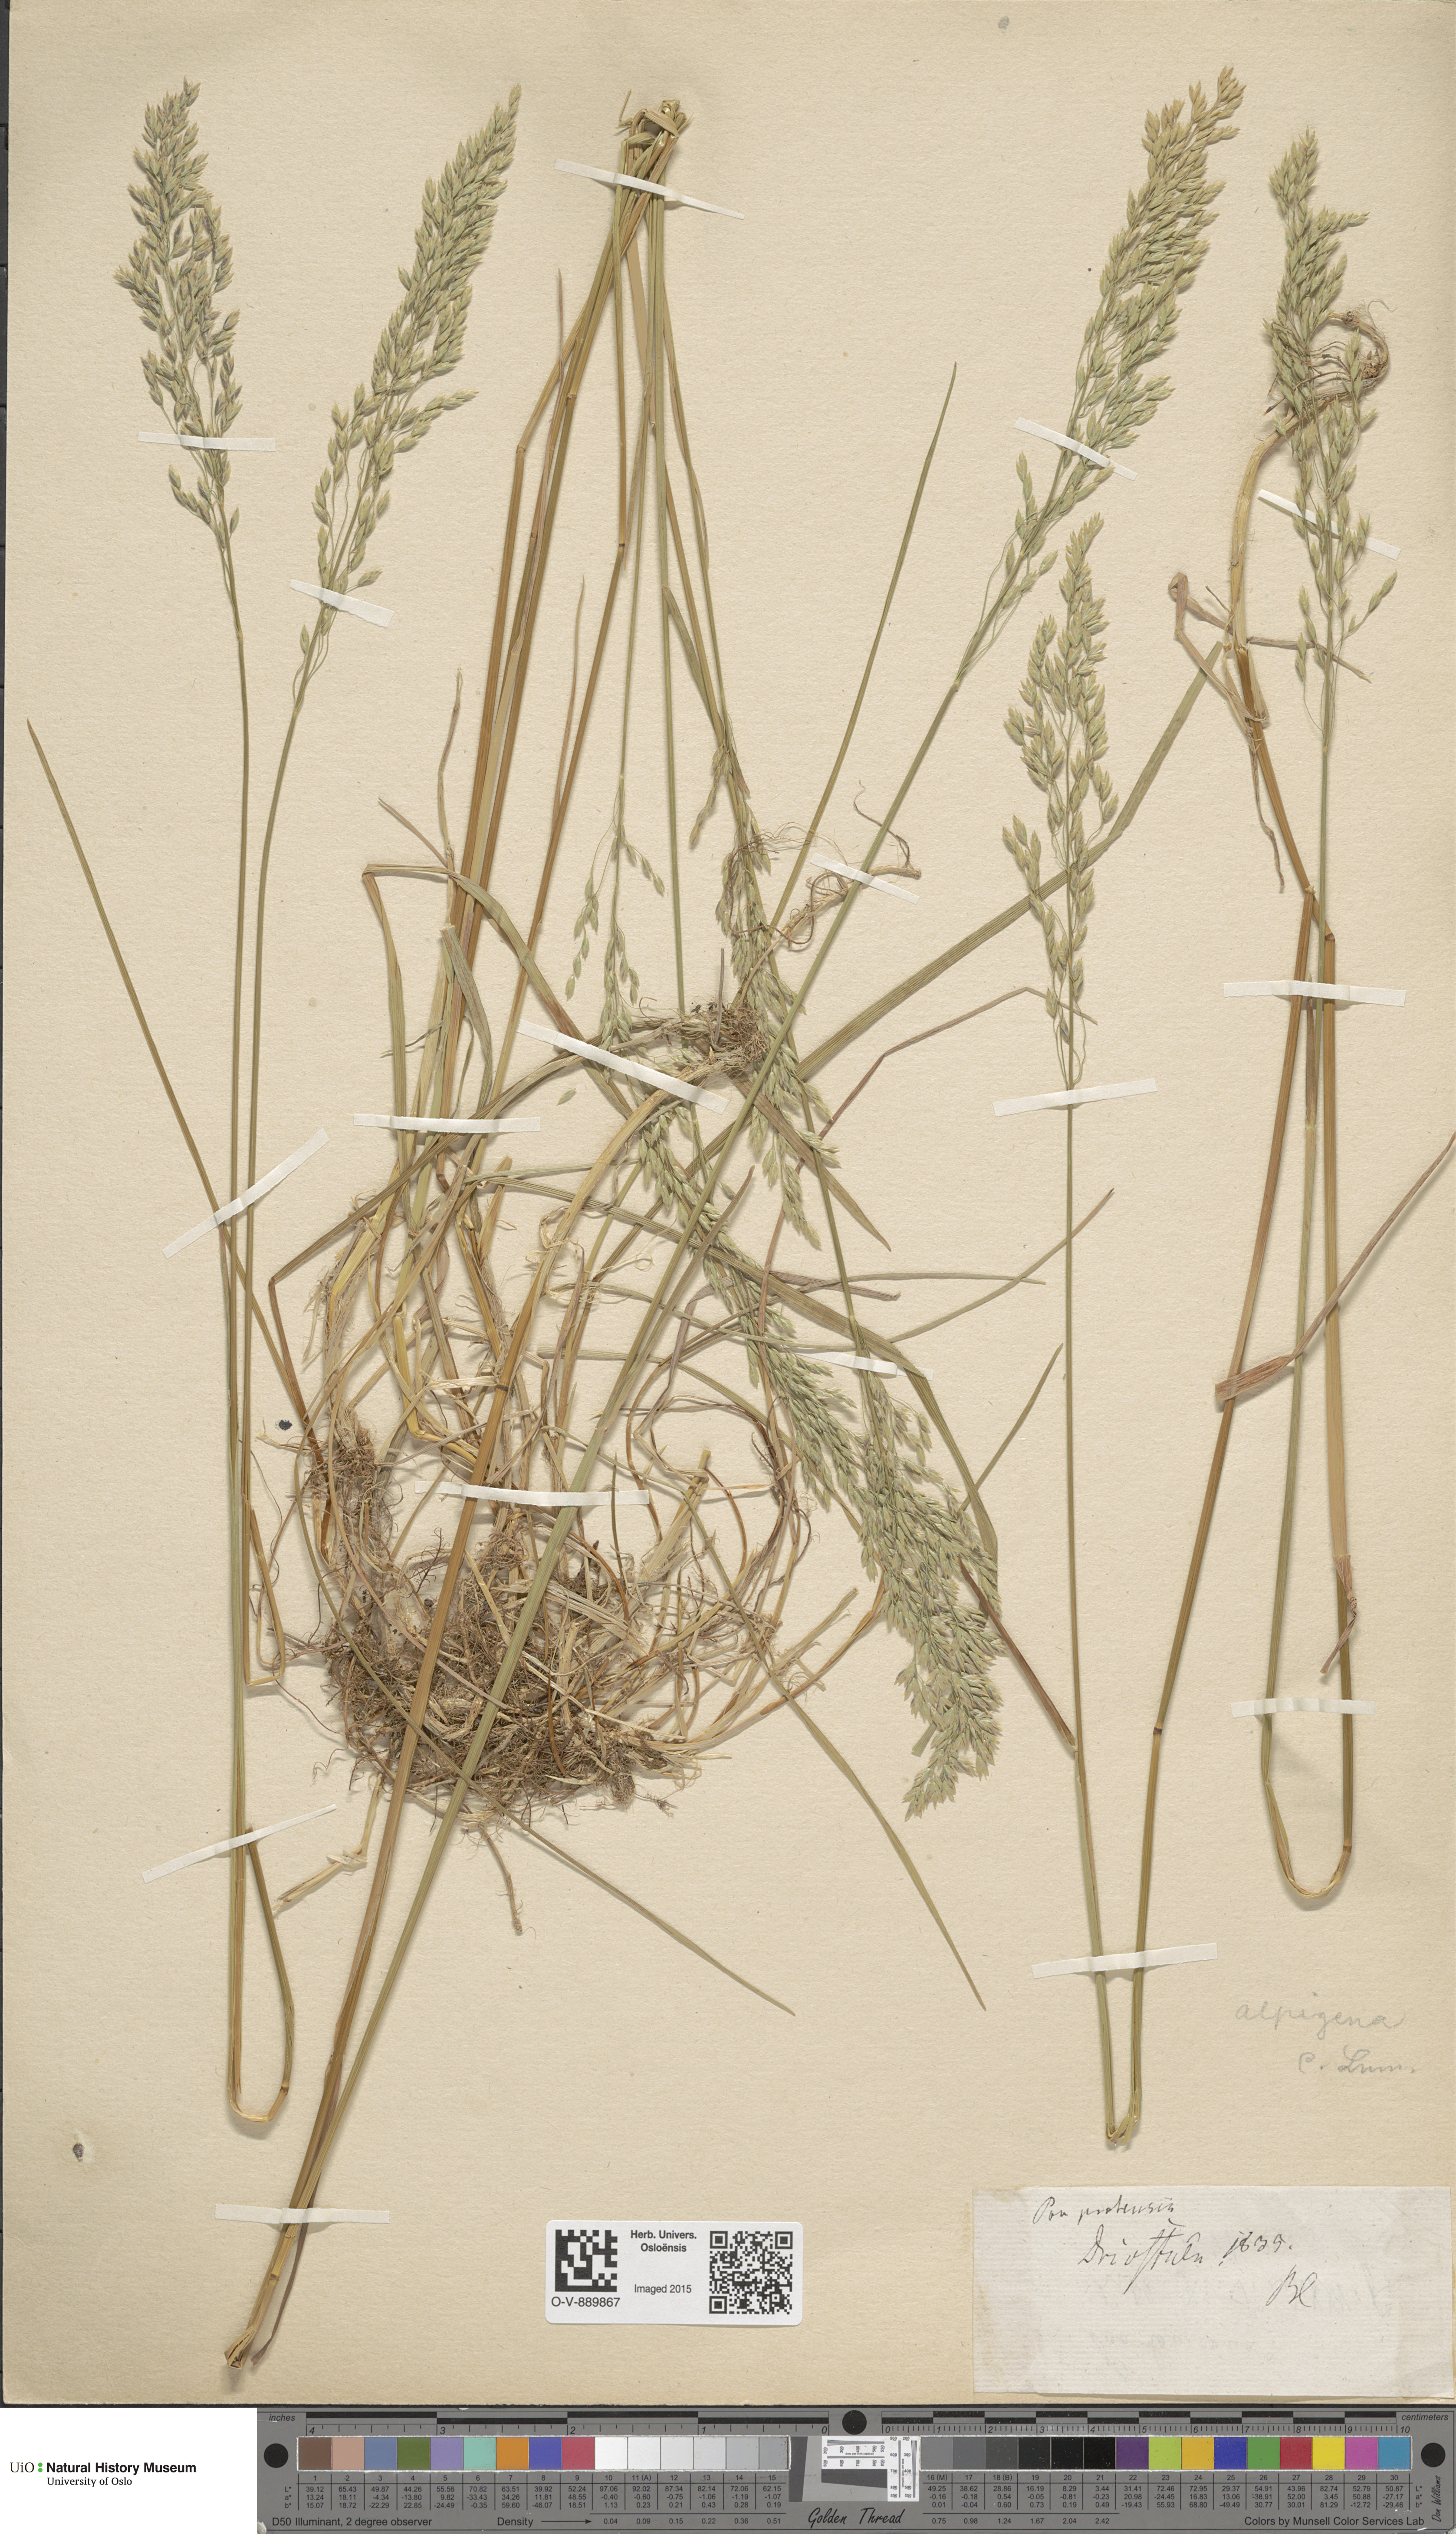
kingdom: Plantae
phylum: Tracheophyta
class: Liliopsida
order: Poales
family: Poaceae
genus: Poa
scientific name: Poa alpigena
